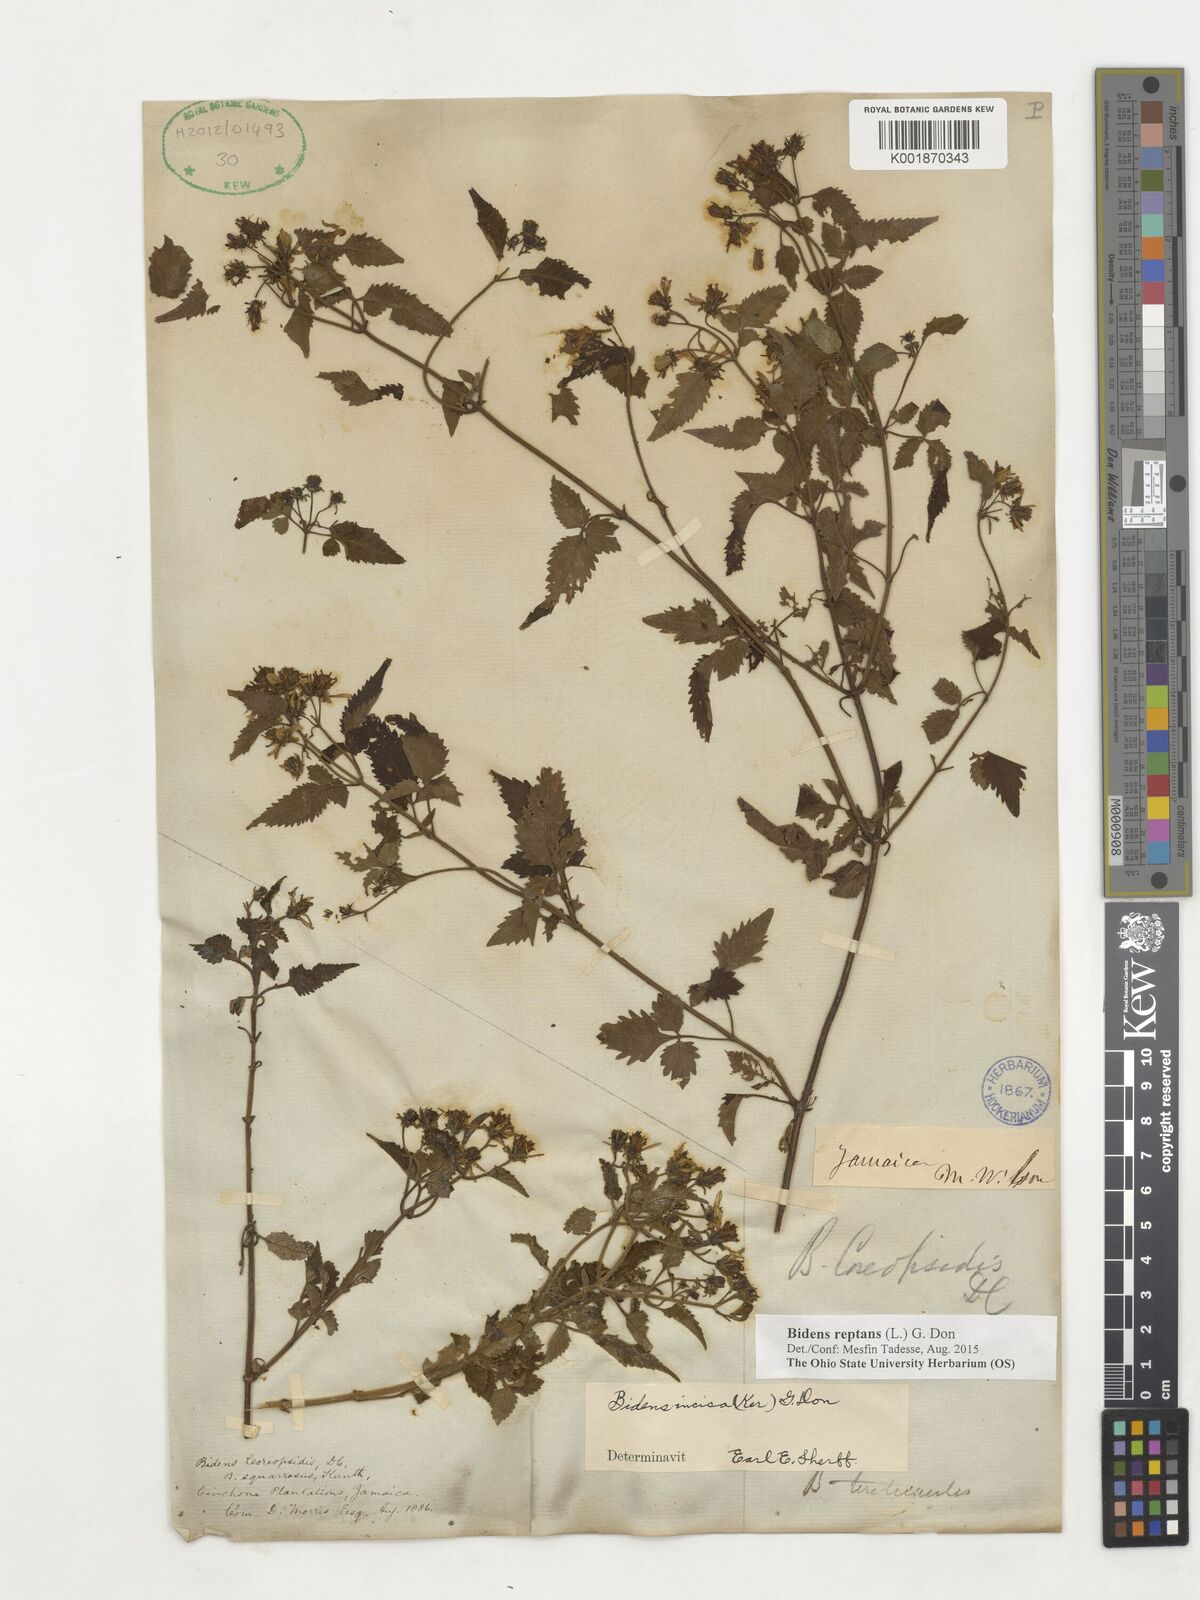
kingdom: Plantae
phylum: Tracheophyta
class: Magnoliopsida
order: Asterales
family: Asteraceae
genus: Bidens
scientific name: Bidens reptans
